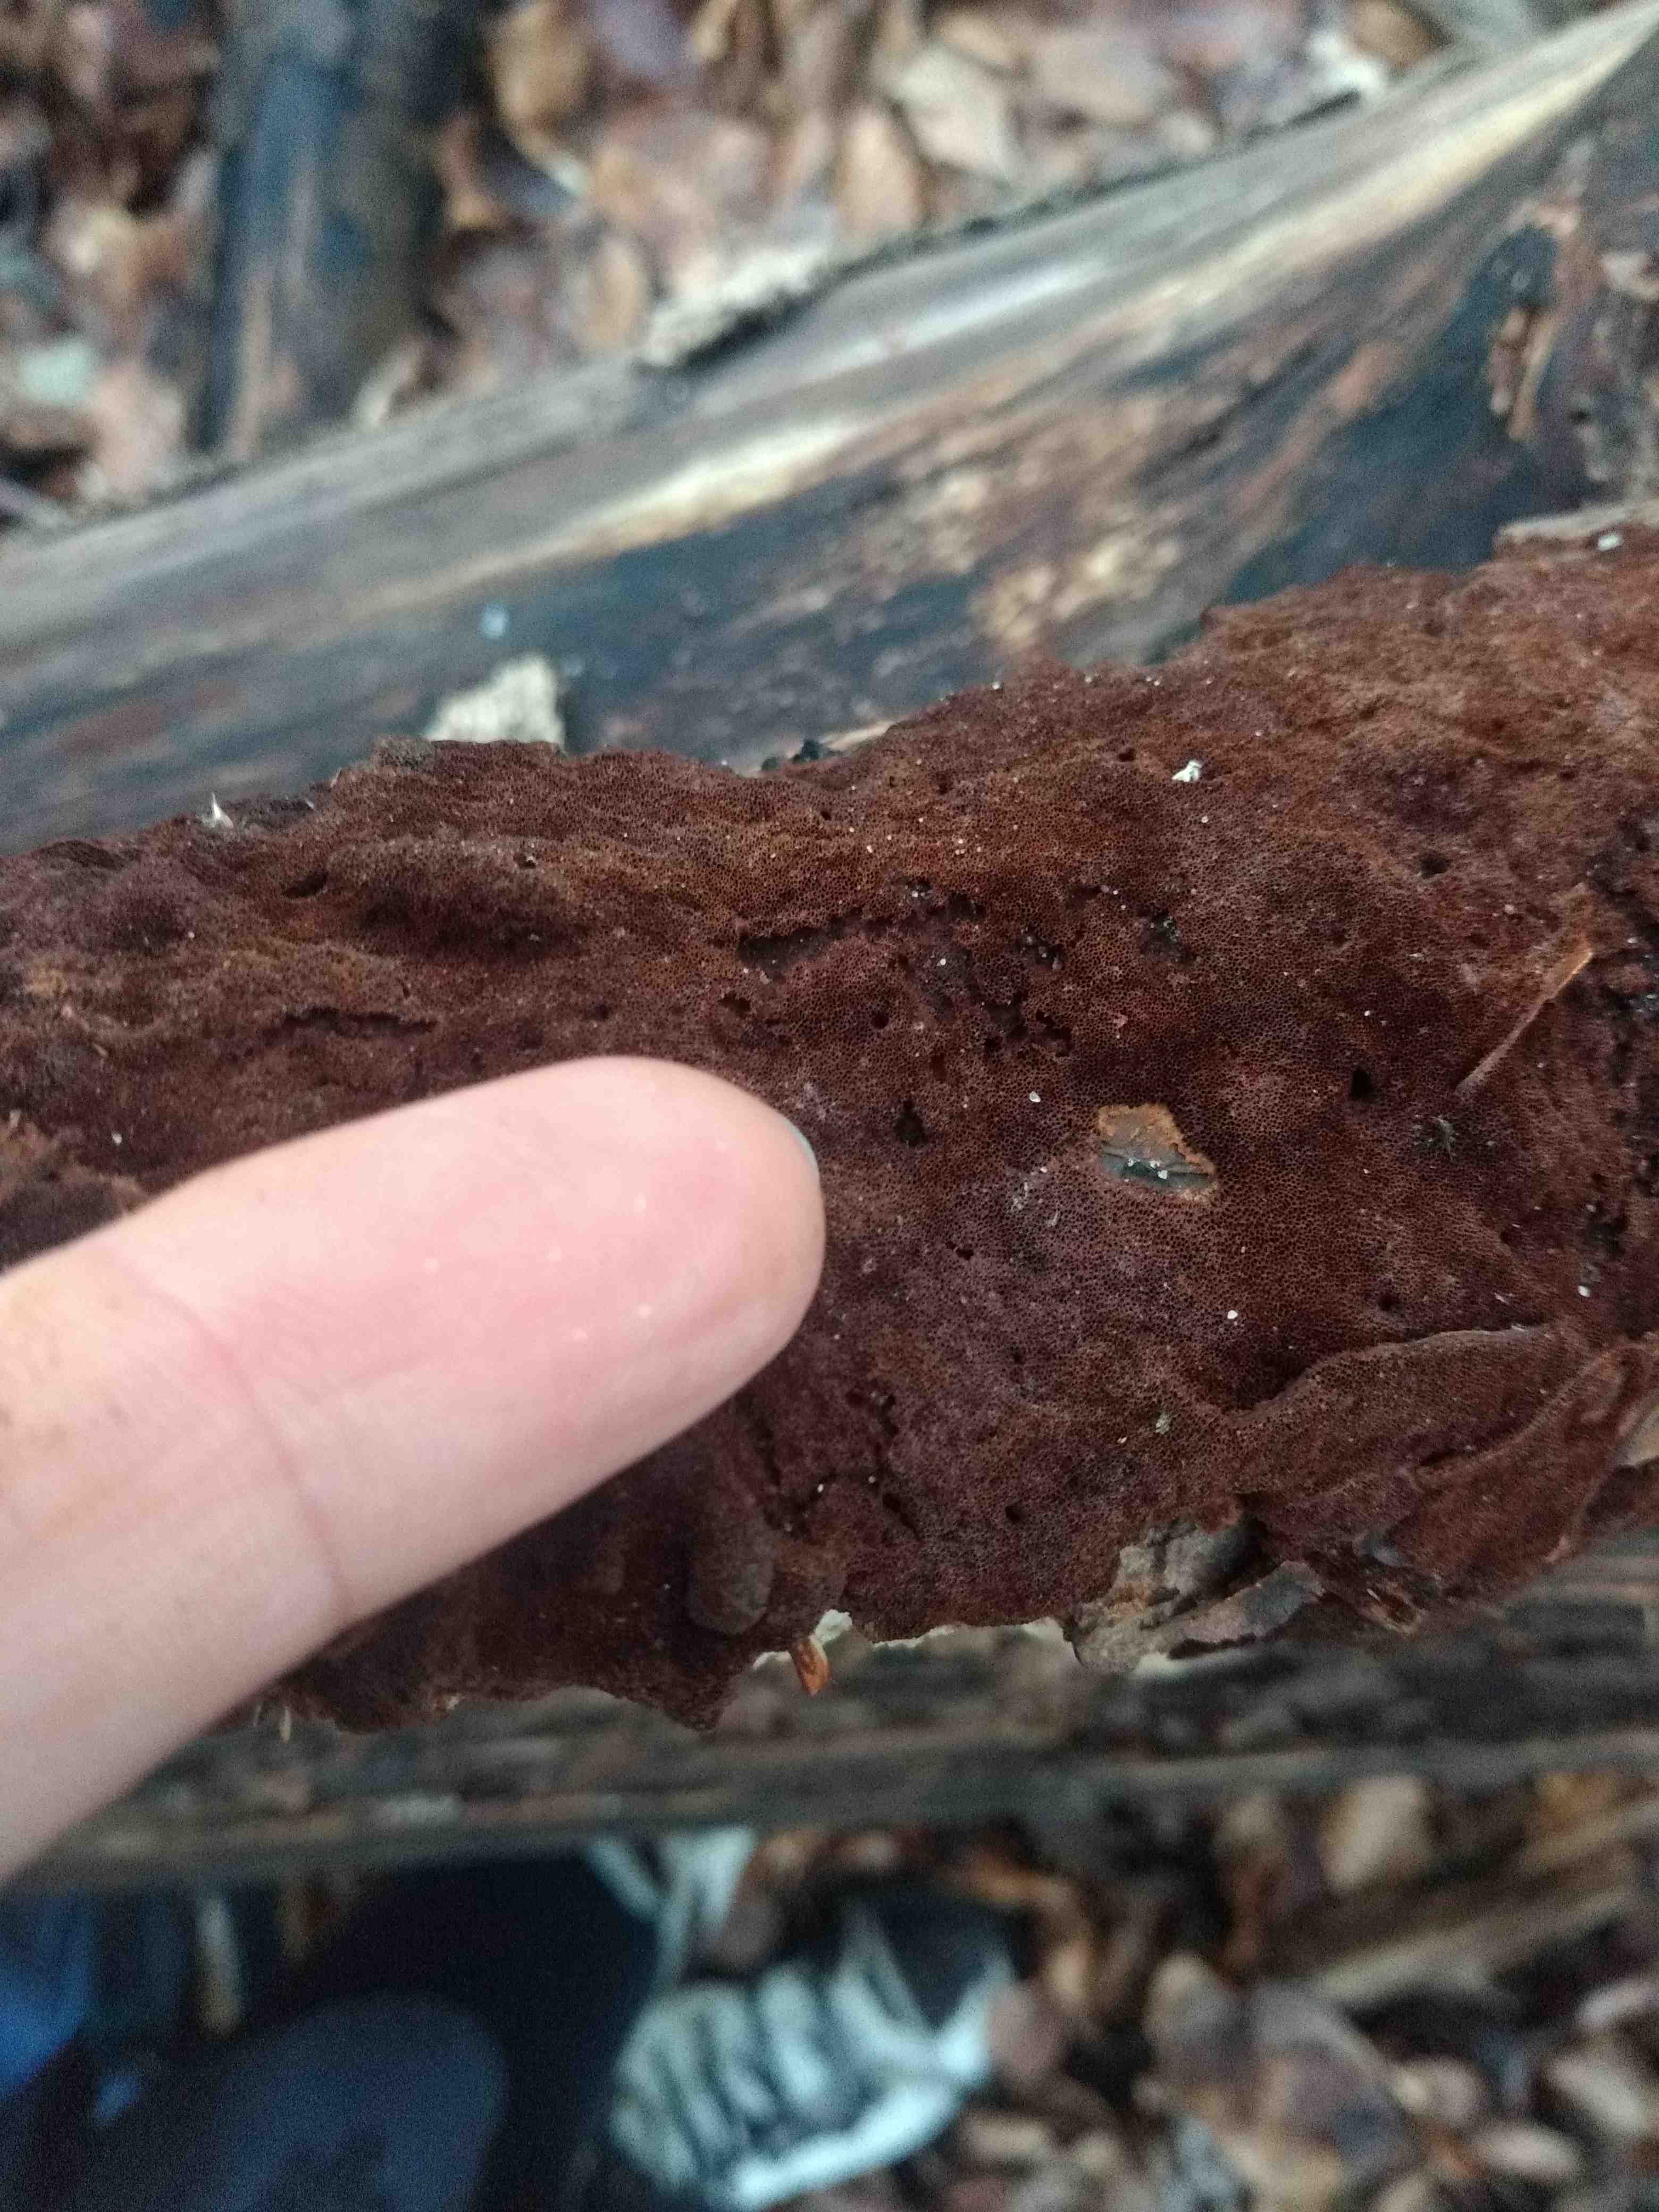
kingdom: Fungi
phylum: Basidiomycota
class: Agaricomycetes
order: Hymenochaetales
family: Hymenochaetaceae
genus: Fuscoporia
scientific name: Fuscoporia
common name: Ildporesvamp
